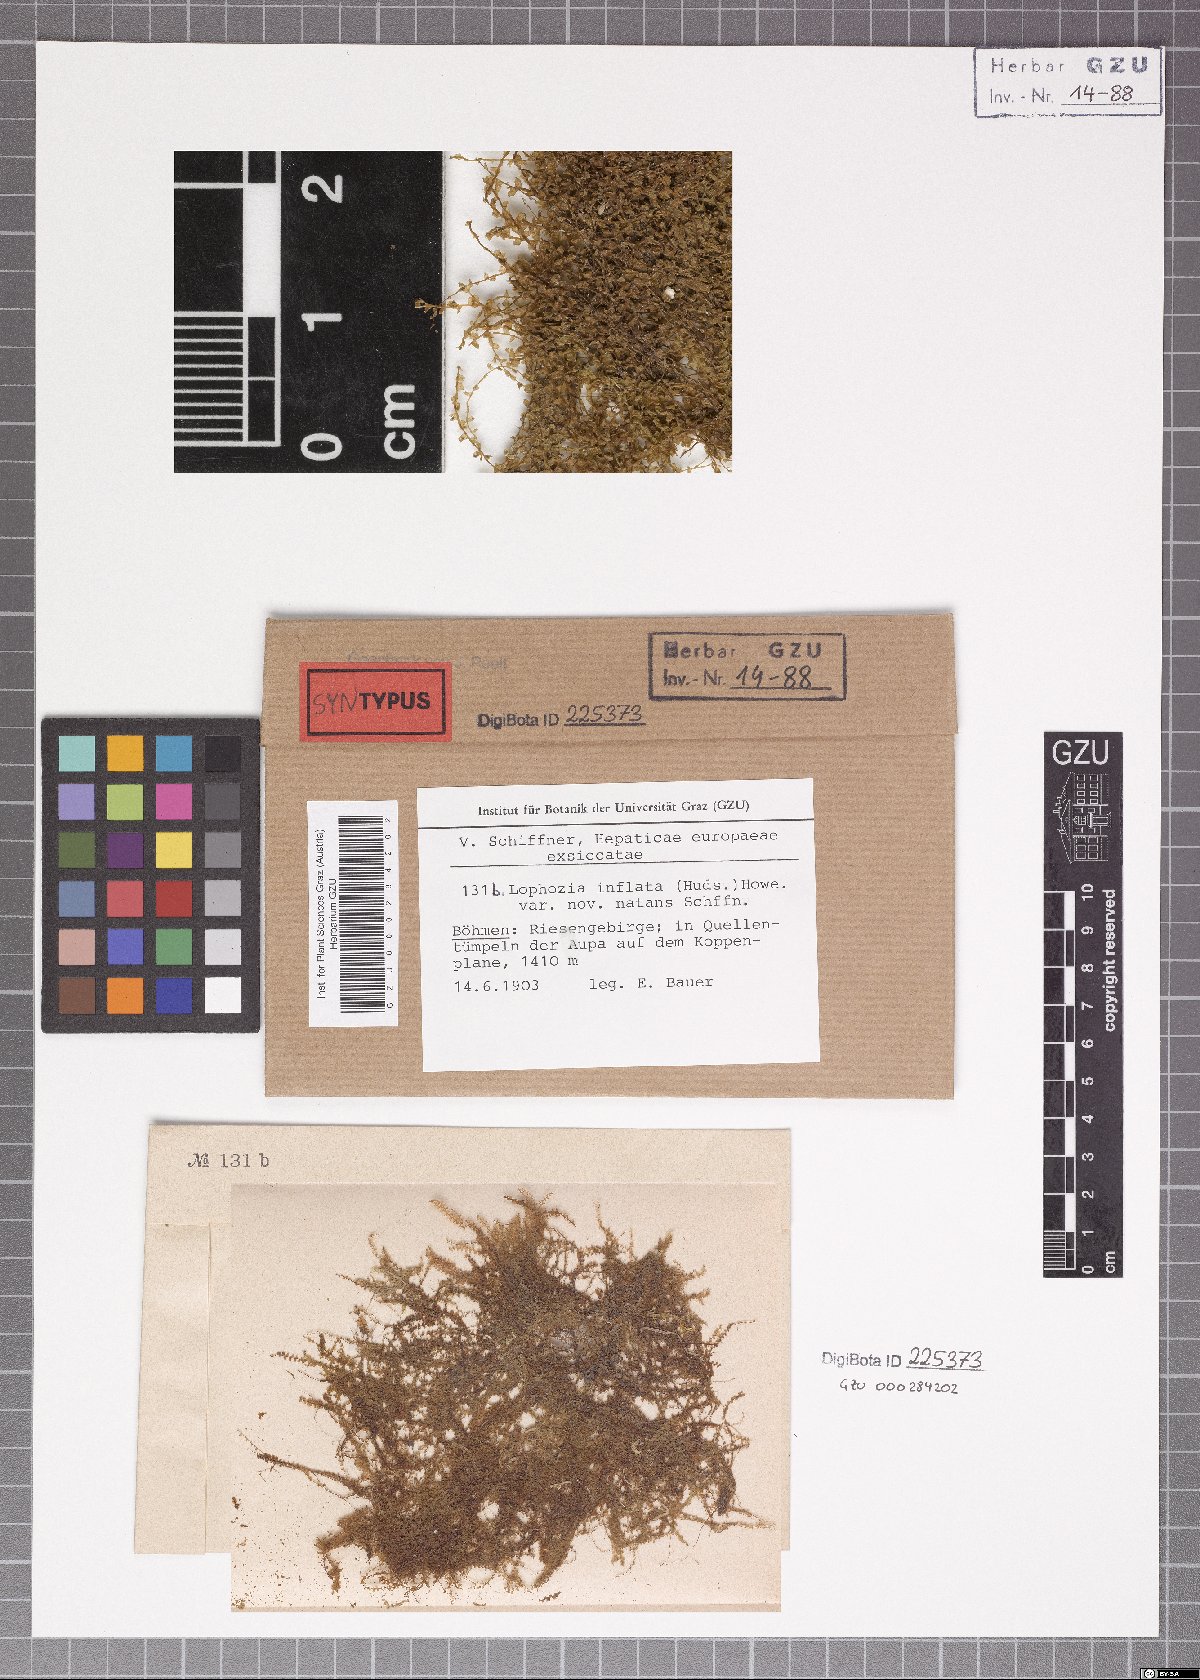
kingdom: Plantae
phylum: Marchantiophyta
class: Jungermanniopsida
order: Jungermanniales
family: Anastrophyllaceae
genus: Gymnocolea
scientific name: Gymnocolea inflata
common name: Inflated notchwort
